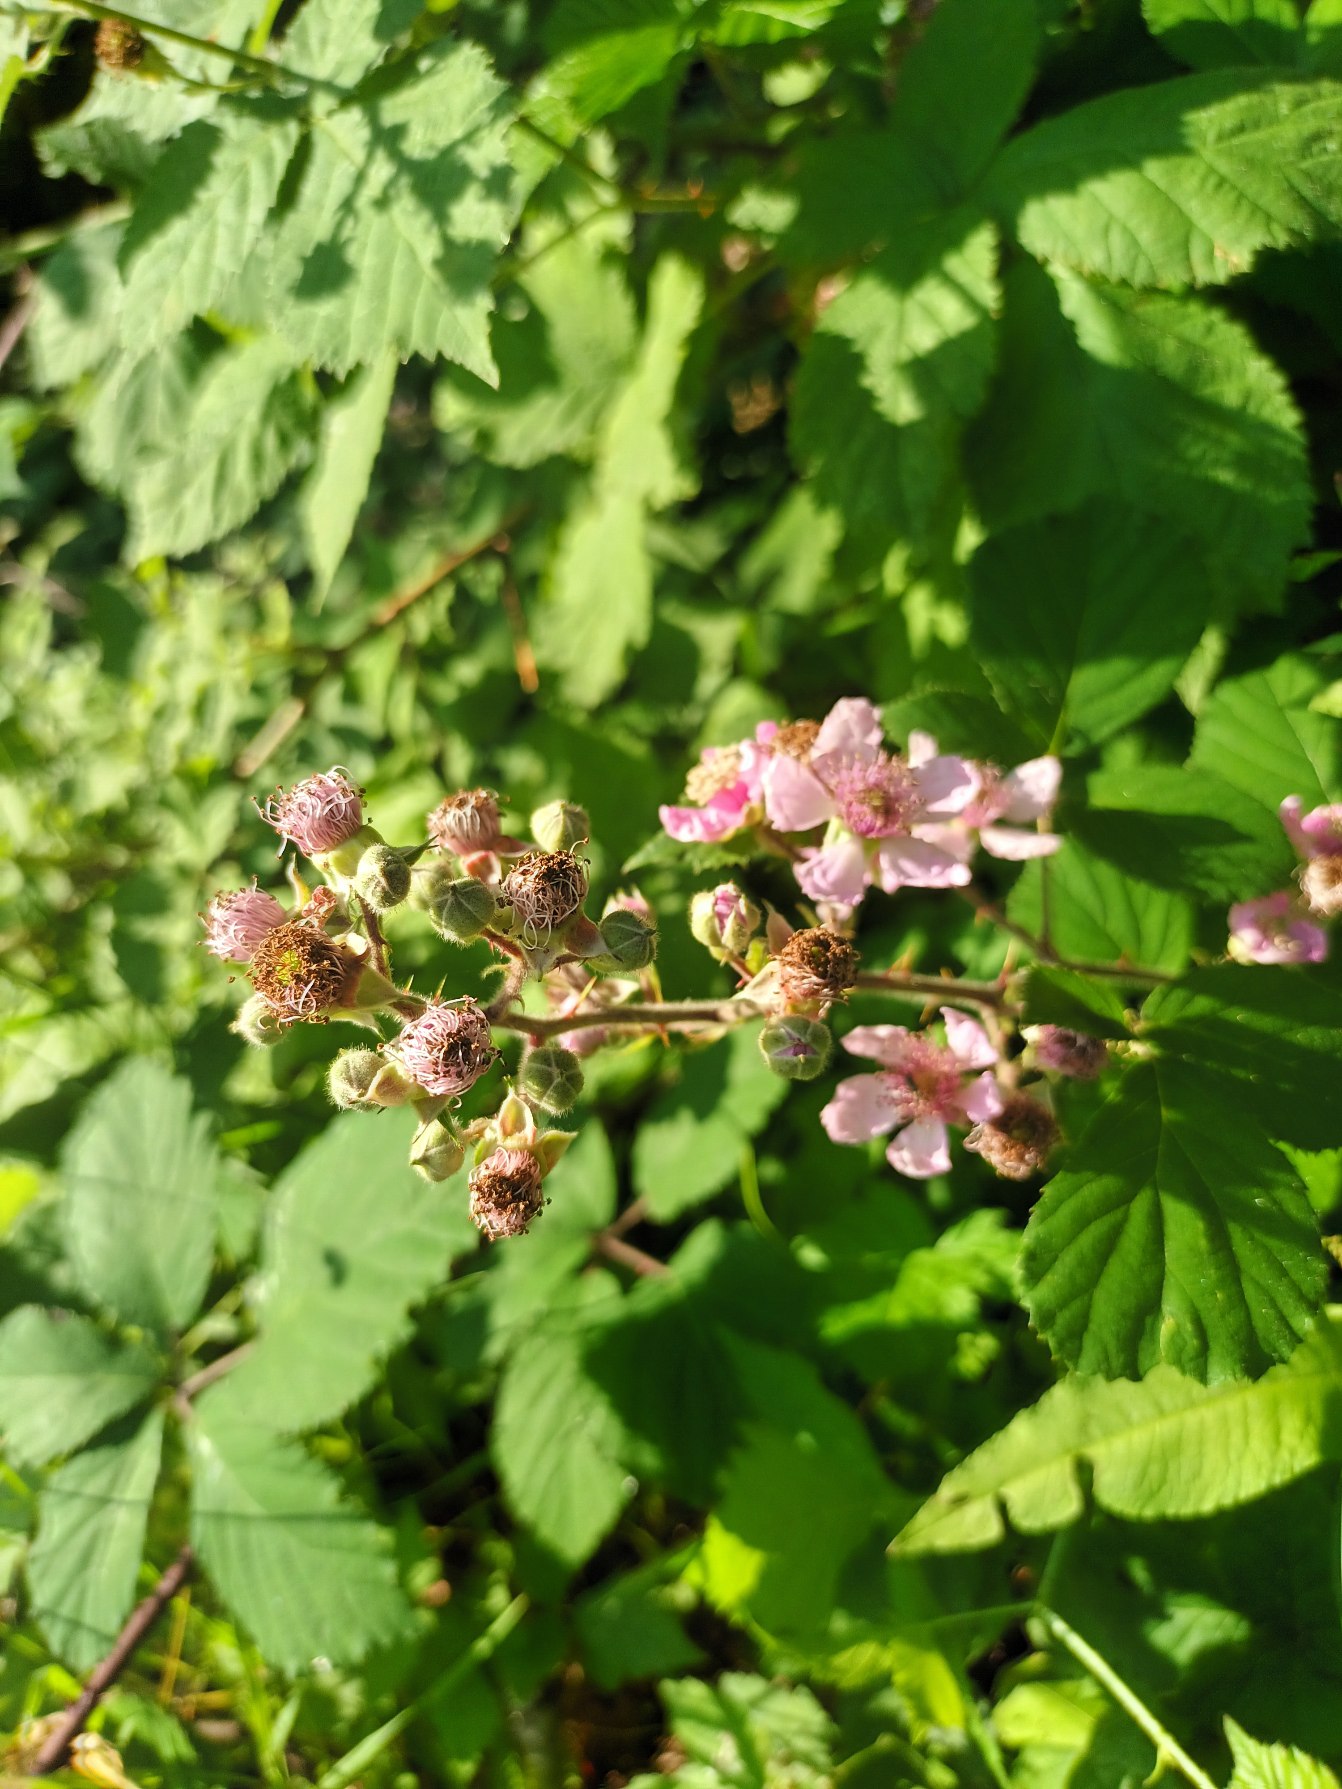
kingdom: Plantae
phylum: Tracheophyta
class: Magnoliopsida
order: Rosales
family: Rosaceae
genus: Rubus
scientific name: Rubus vestitus
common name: Rundbladet brombær
